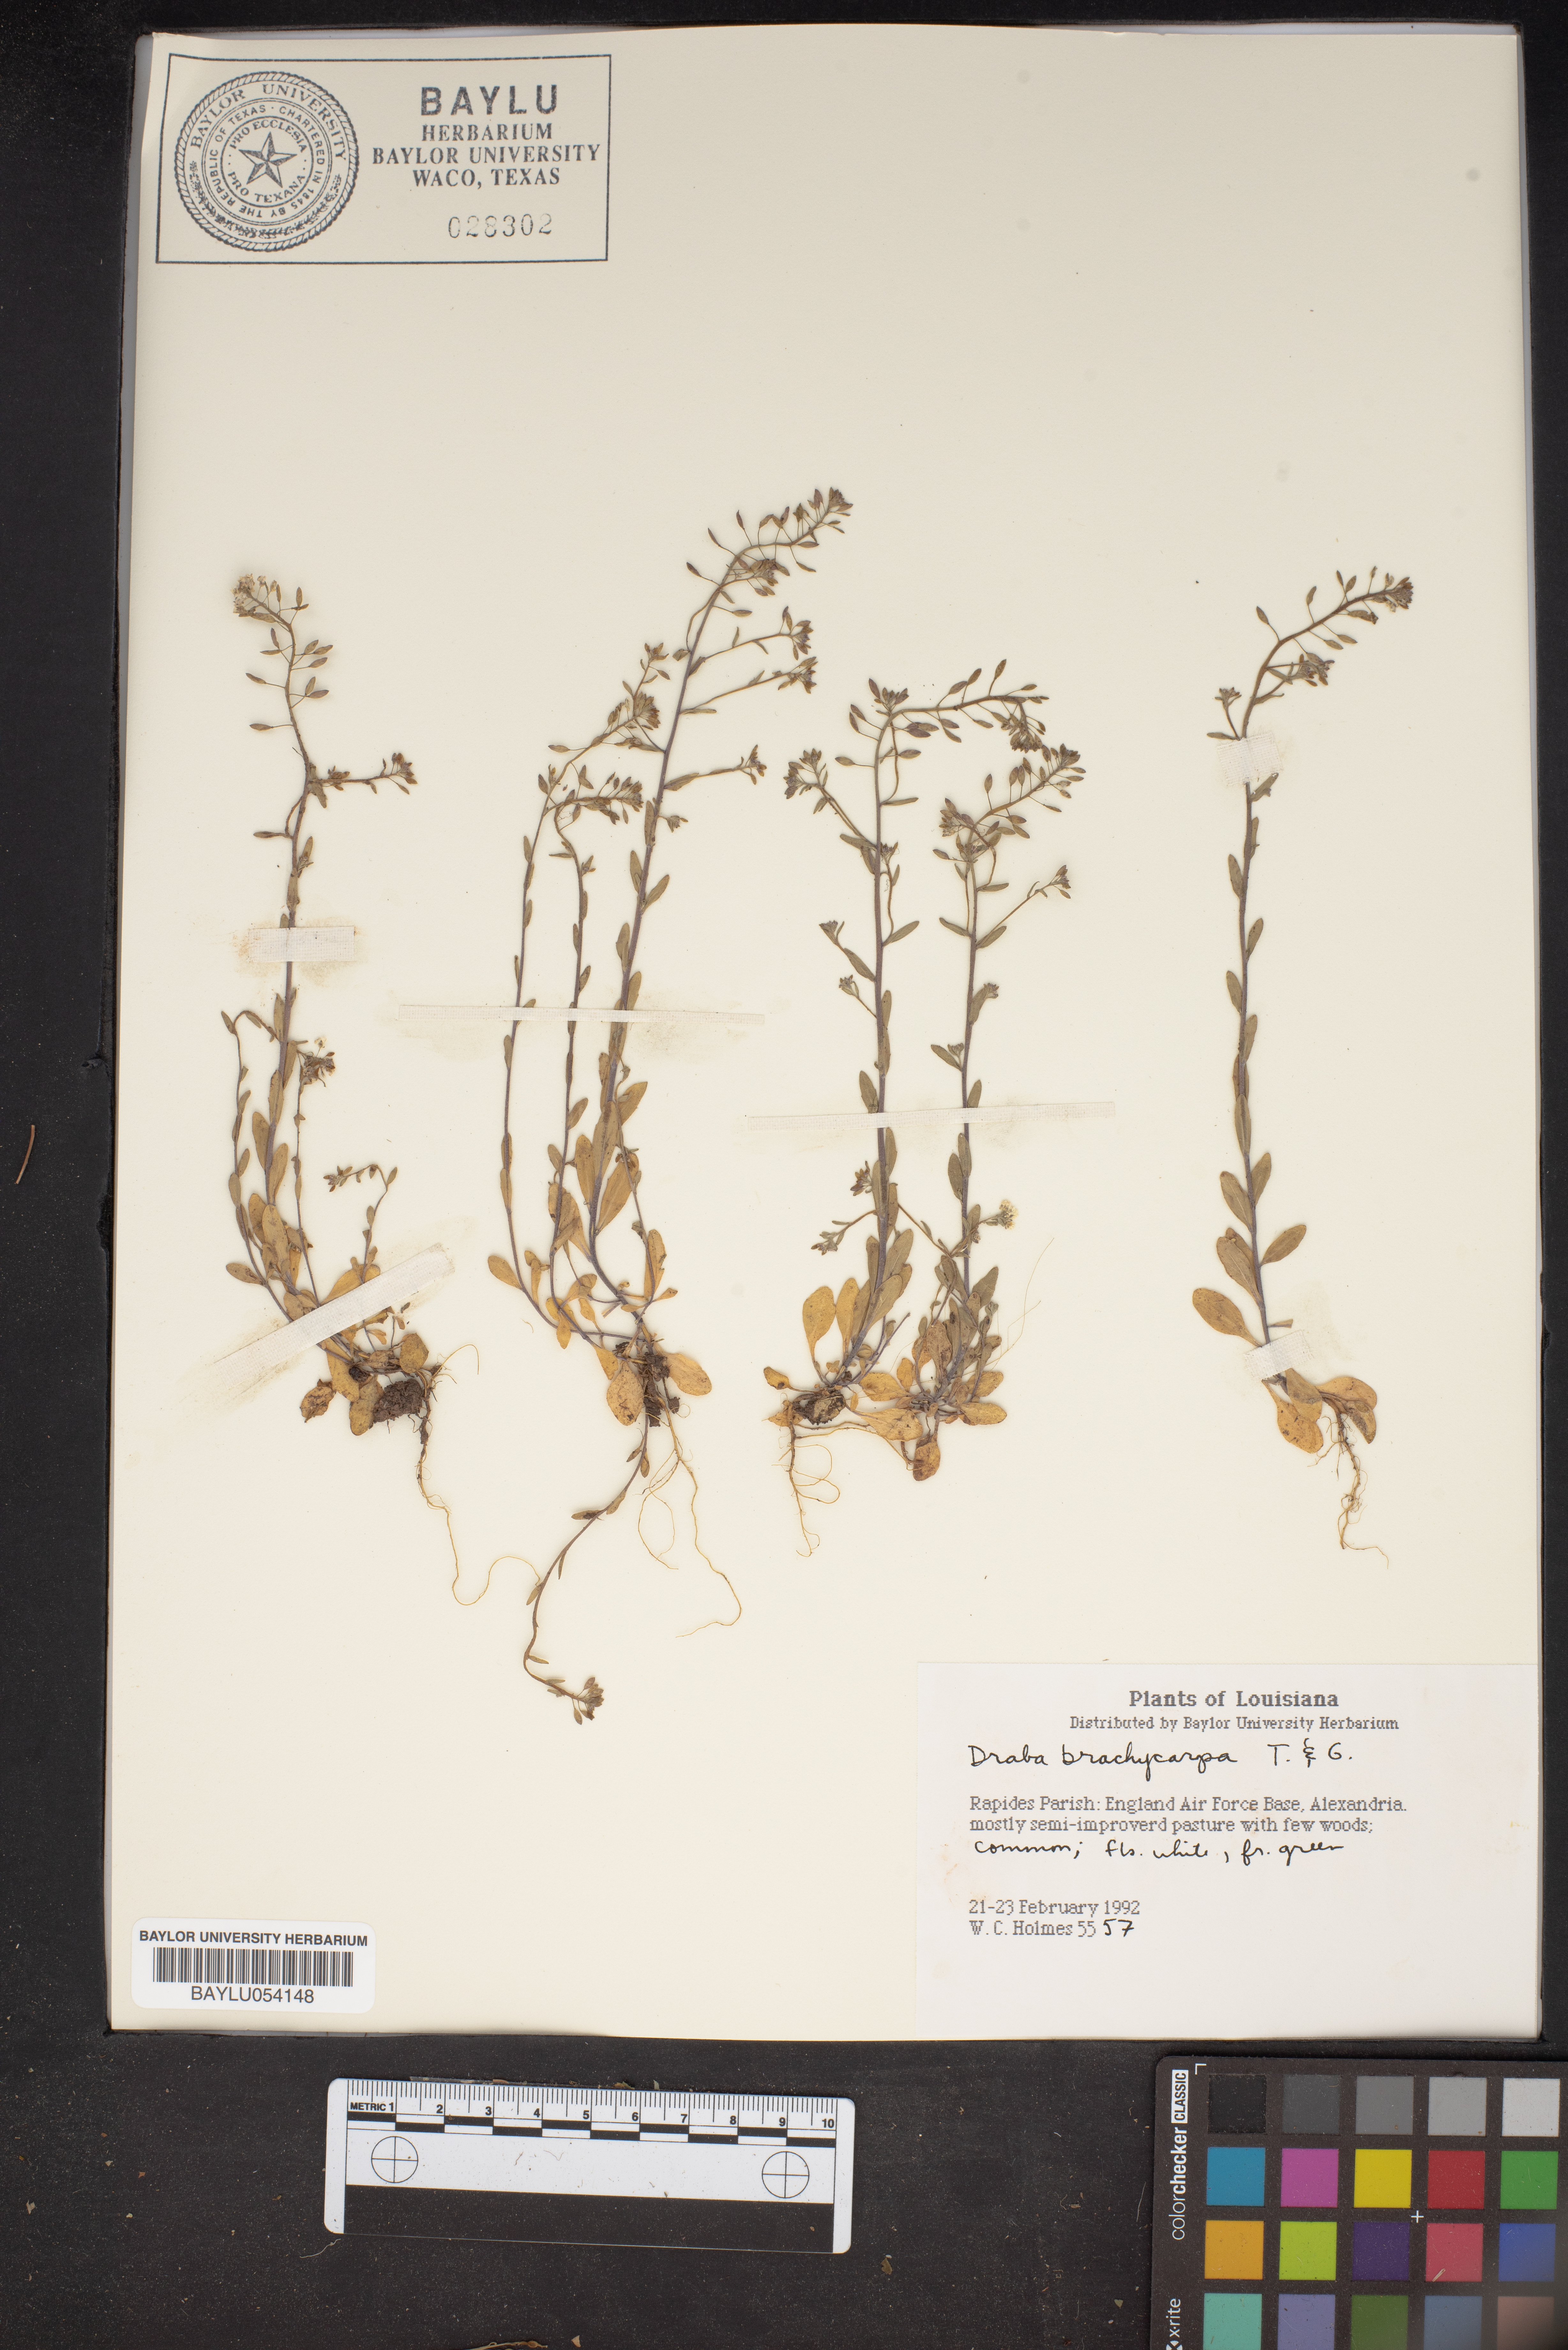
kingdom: Plantae
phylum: Tracheophyta
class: Magnoliopsida
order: Brassicales
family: Brassicaceae
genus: Abdra
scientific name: Abdra brachycarpa
